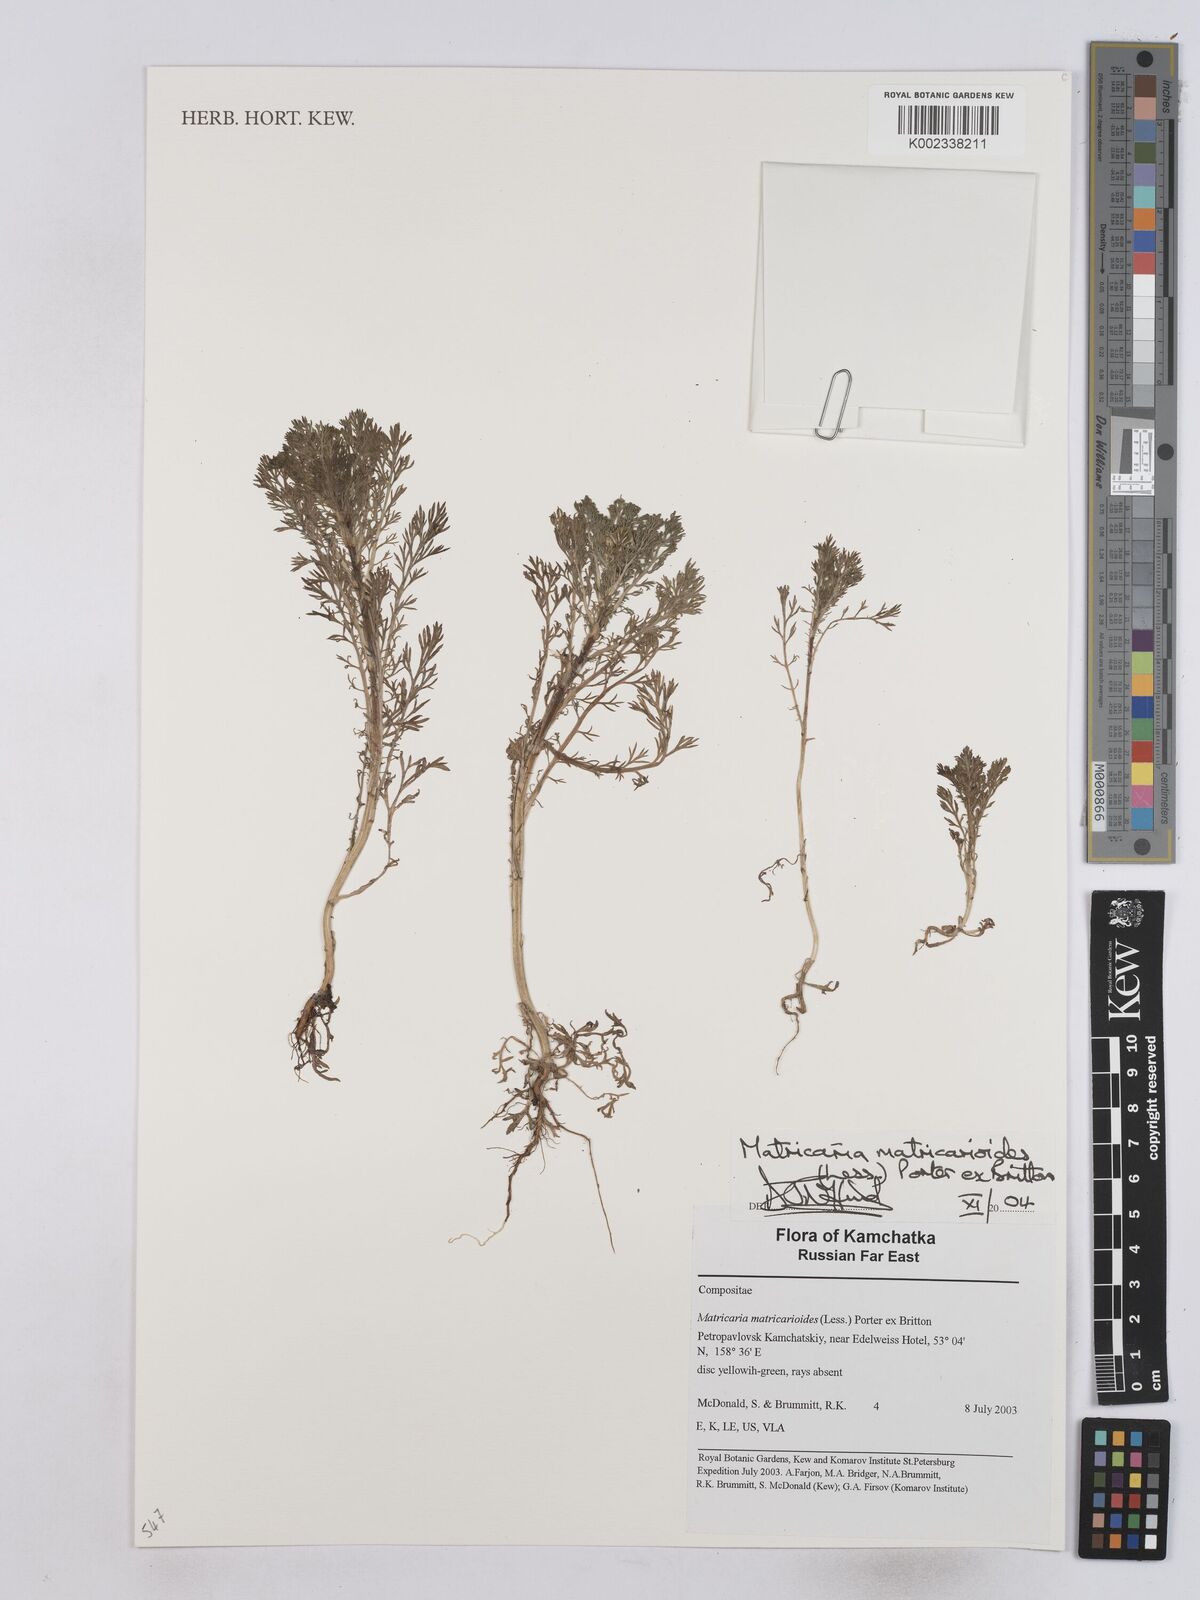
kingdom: Plantae
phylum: Tracheophyta
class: Magnoliopsida
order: Asterales
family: Asteraceae
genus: Matricaria
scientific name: Matricaria discoidea
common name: Disc mayweed
